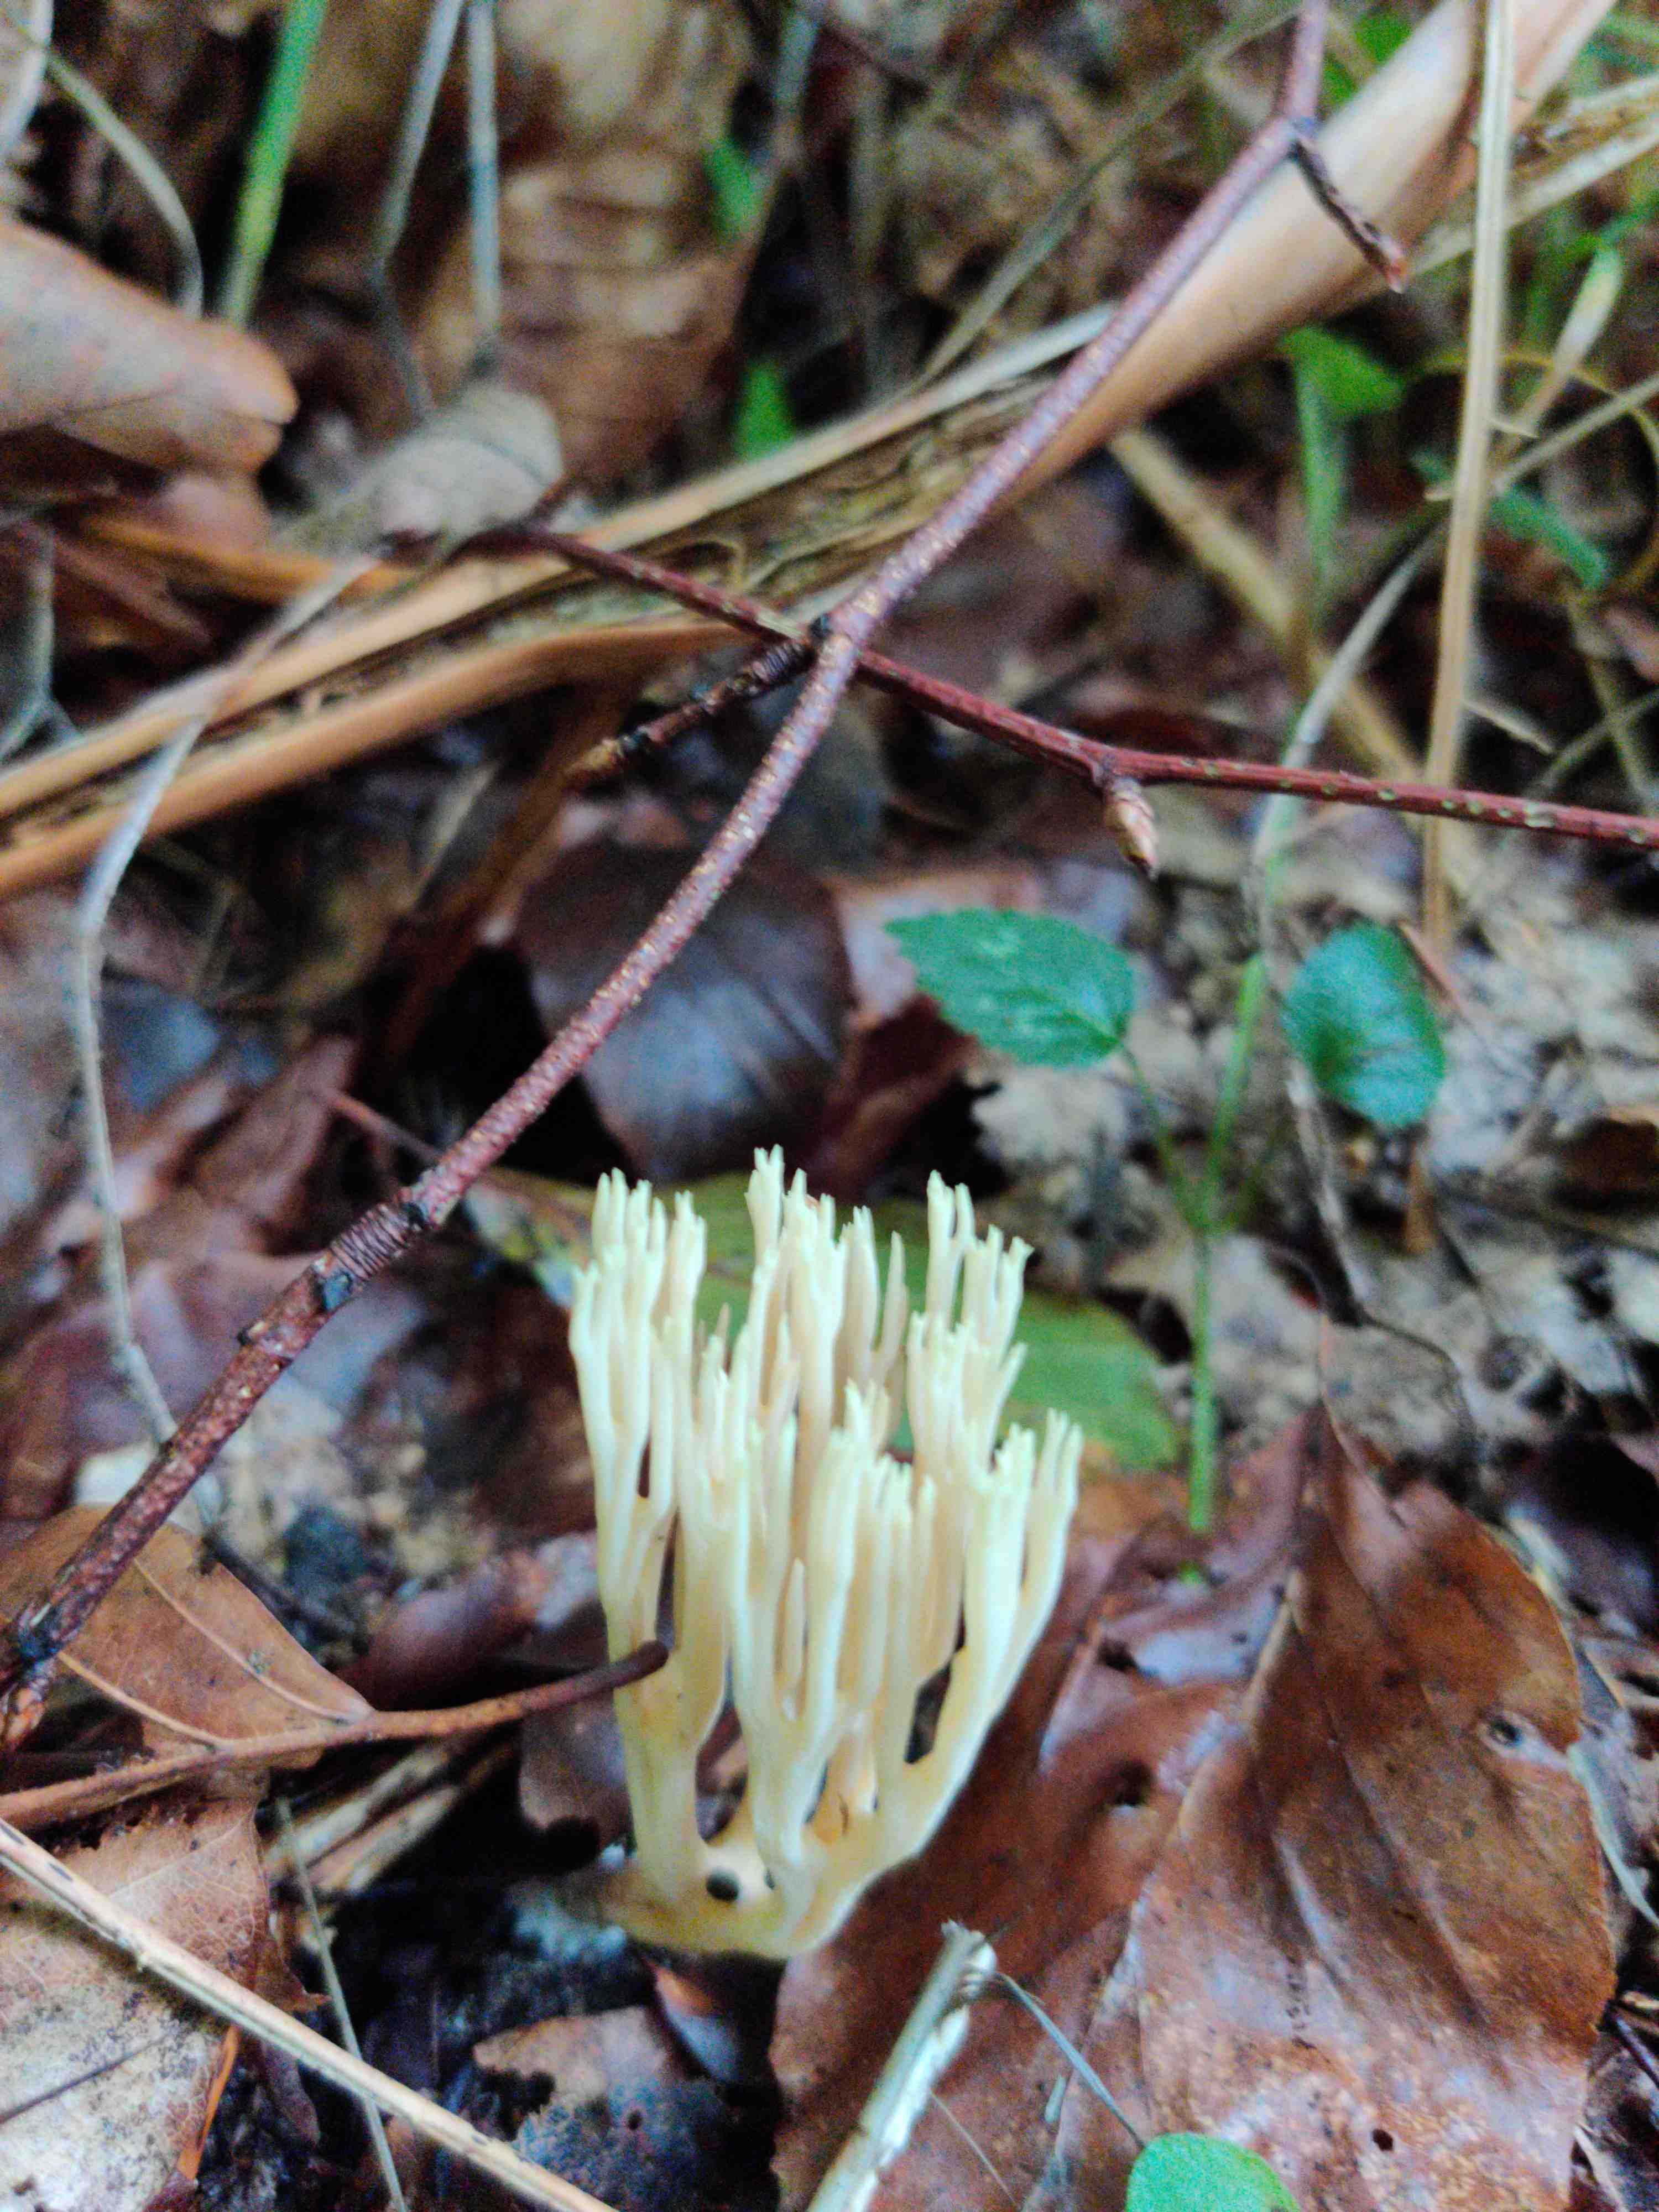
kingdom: Fungi
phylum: Basidiomycota
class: Agaricomycetes
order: Gomphales
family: Gomphaceae
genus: Ramaria
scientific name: Ramaria stricta
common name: rank koralsvamp
